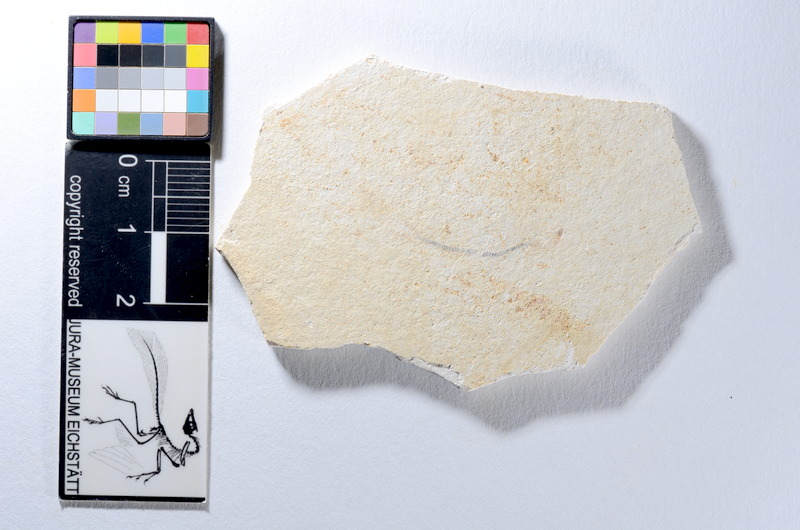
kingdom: Animalia
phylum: Chordata
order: Salmoniformes
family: Orthogonikleithridae
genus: Orthogonikleithrus
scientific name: Orthogonikleithrus hoelli
